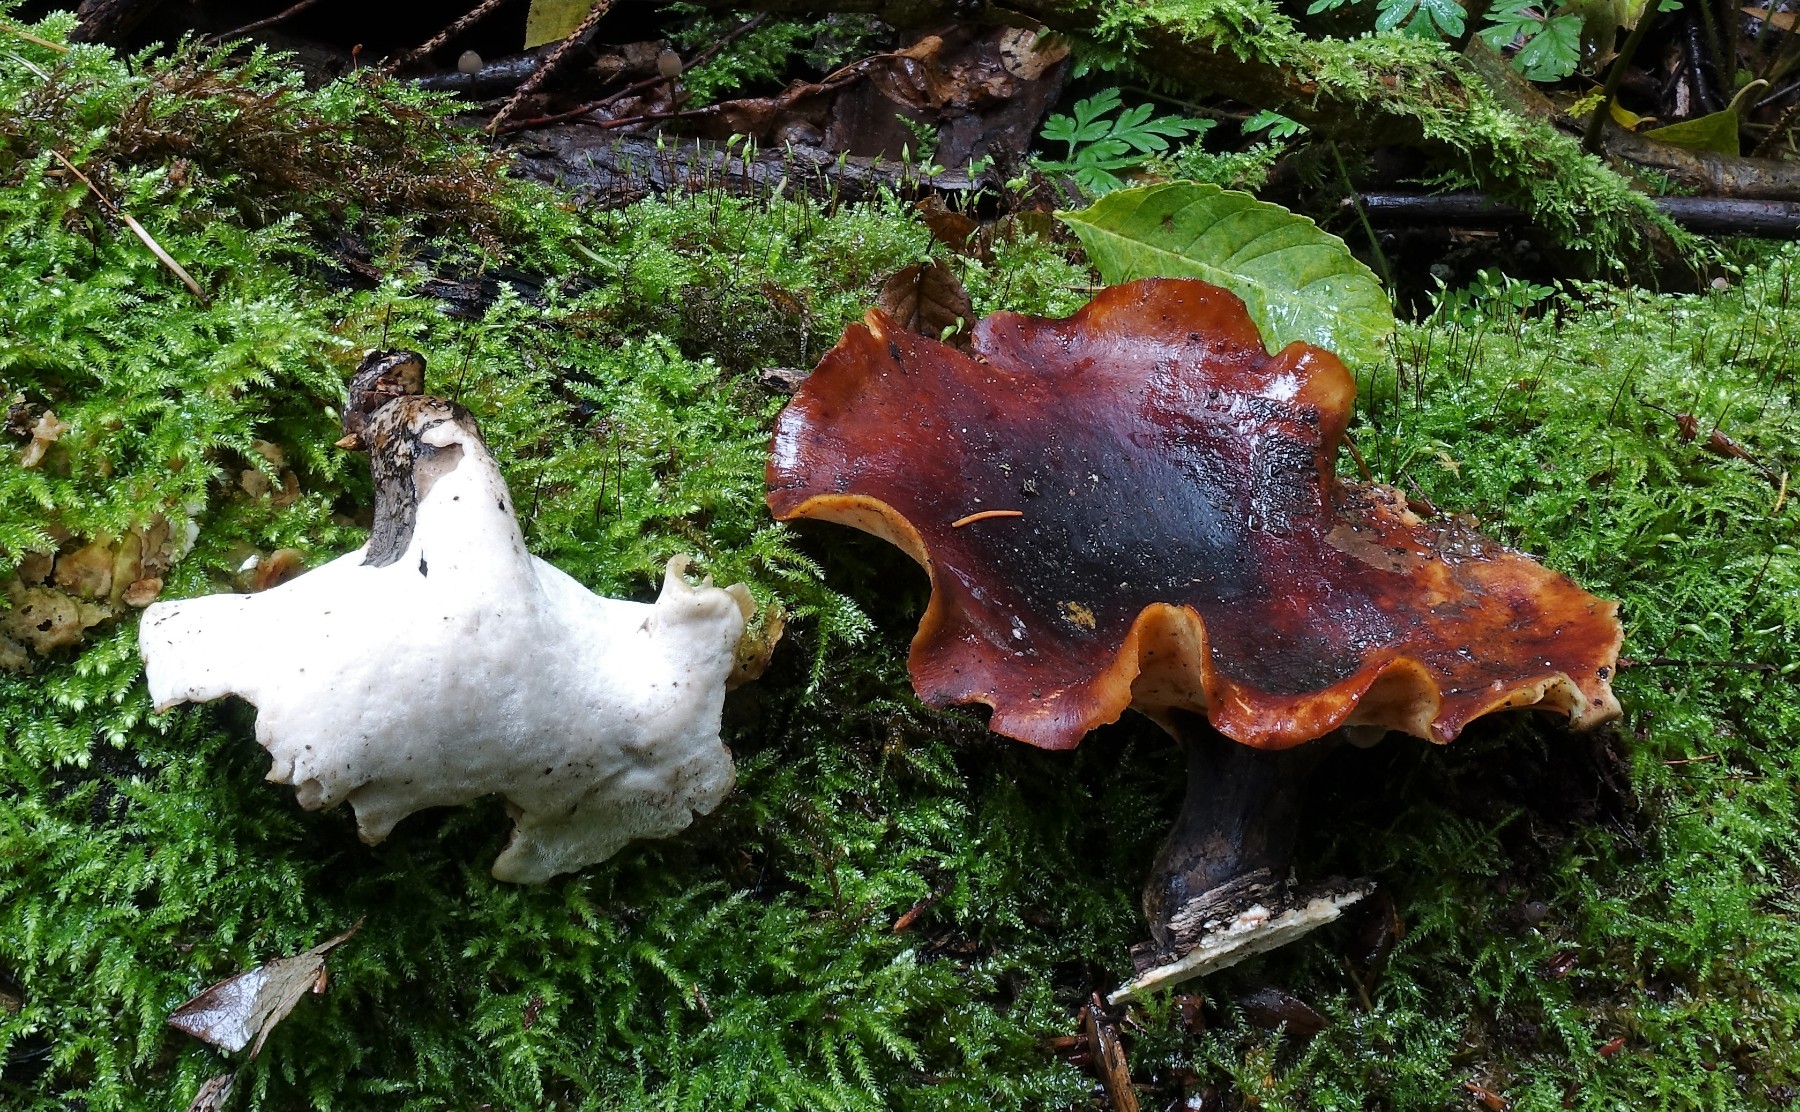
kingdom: Fungi
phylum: Basidiomycota
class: Agaricomycetes
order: Polyporales
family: Polyporaceae
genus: Picipes
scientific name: Picipes badius
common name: kastaniebrun stilkporesvamp
